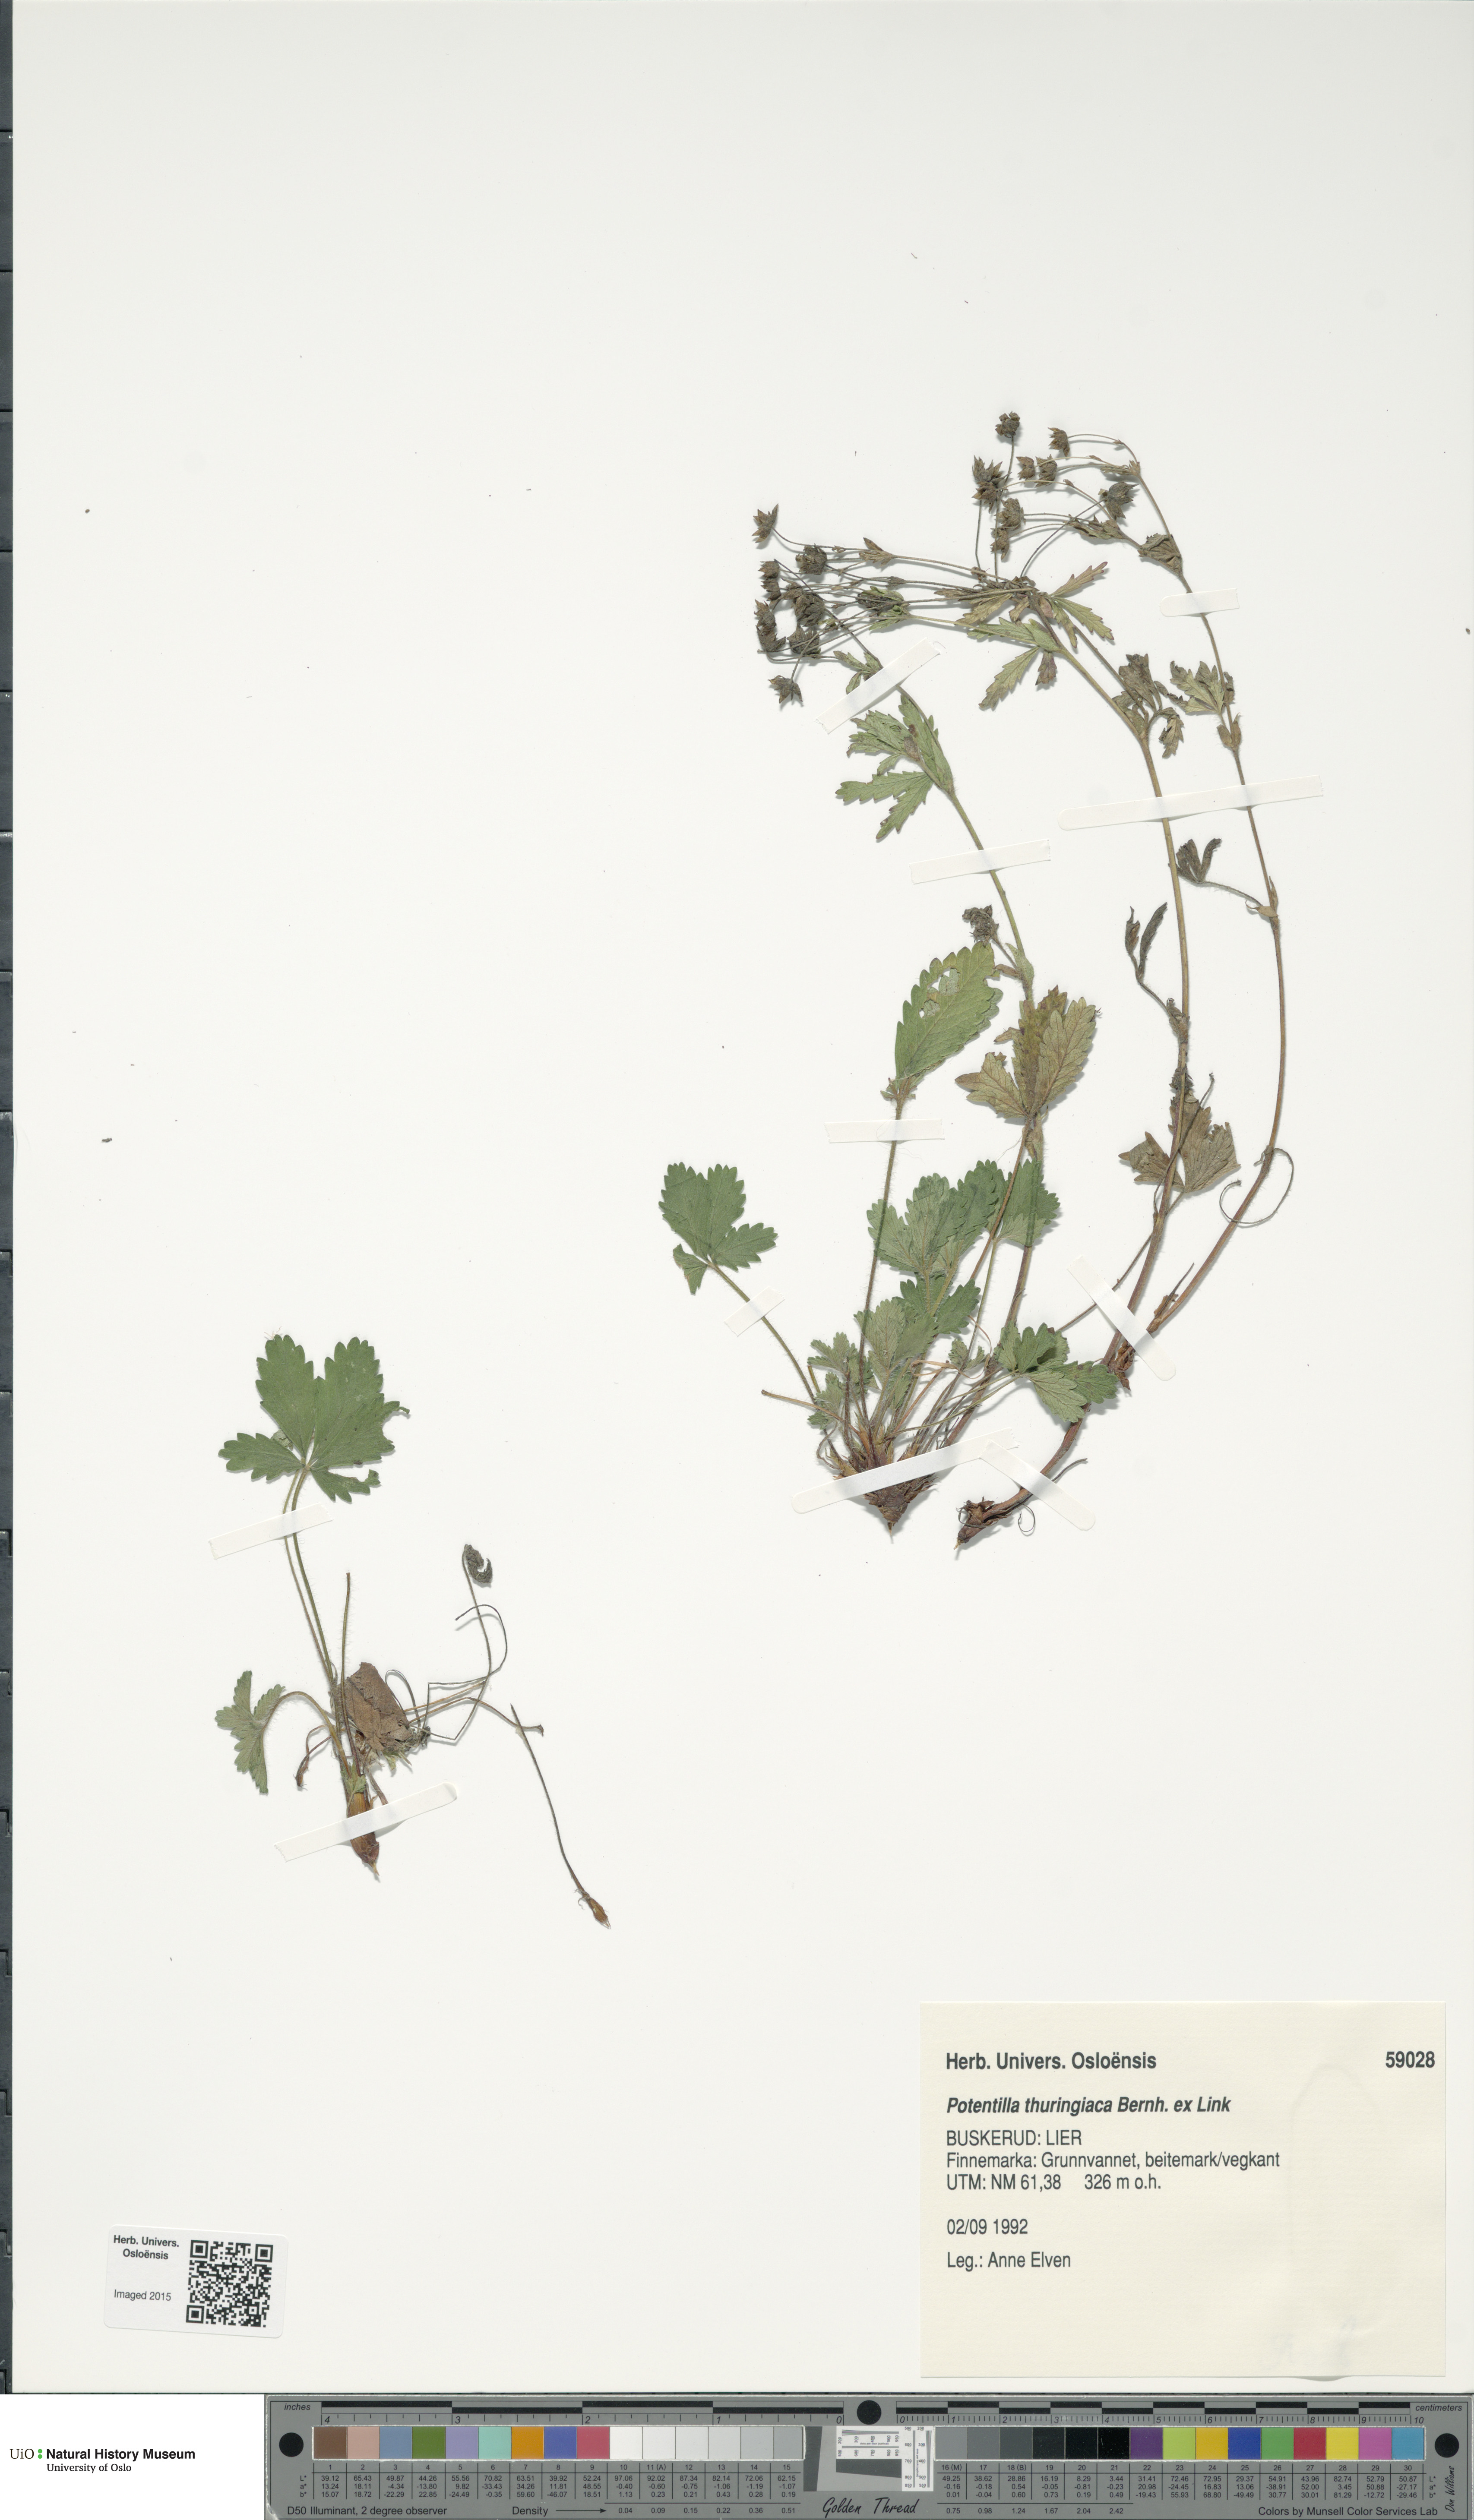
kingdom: Plantae
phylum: Tracheophyta
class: Magnoliopsida
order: Rosales
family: Rosaceae
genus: Potentilla
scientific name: Potentilla thuringiaca
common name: European cinquefoil
